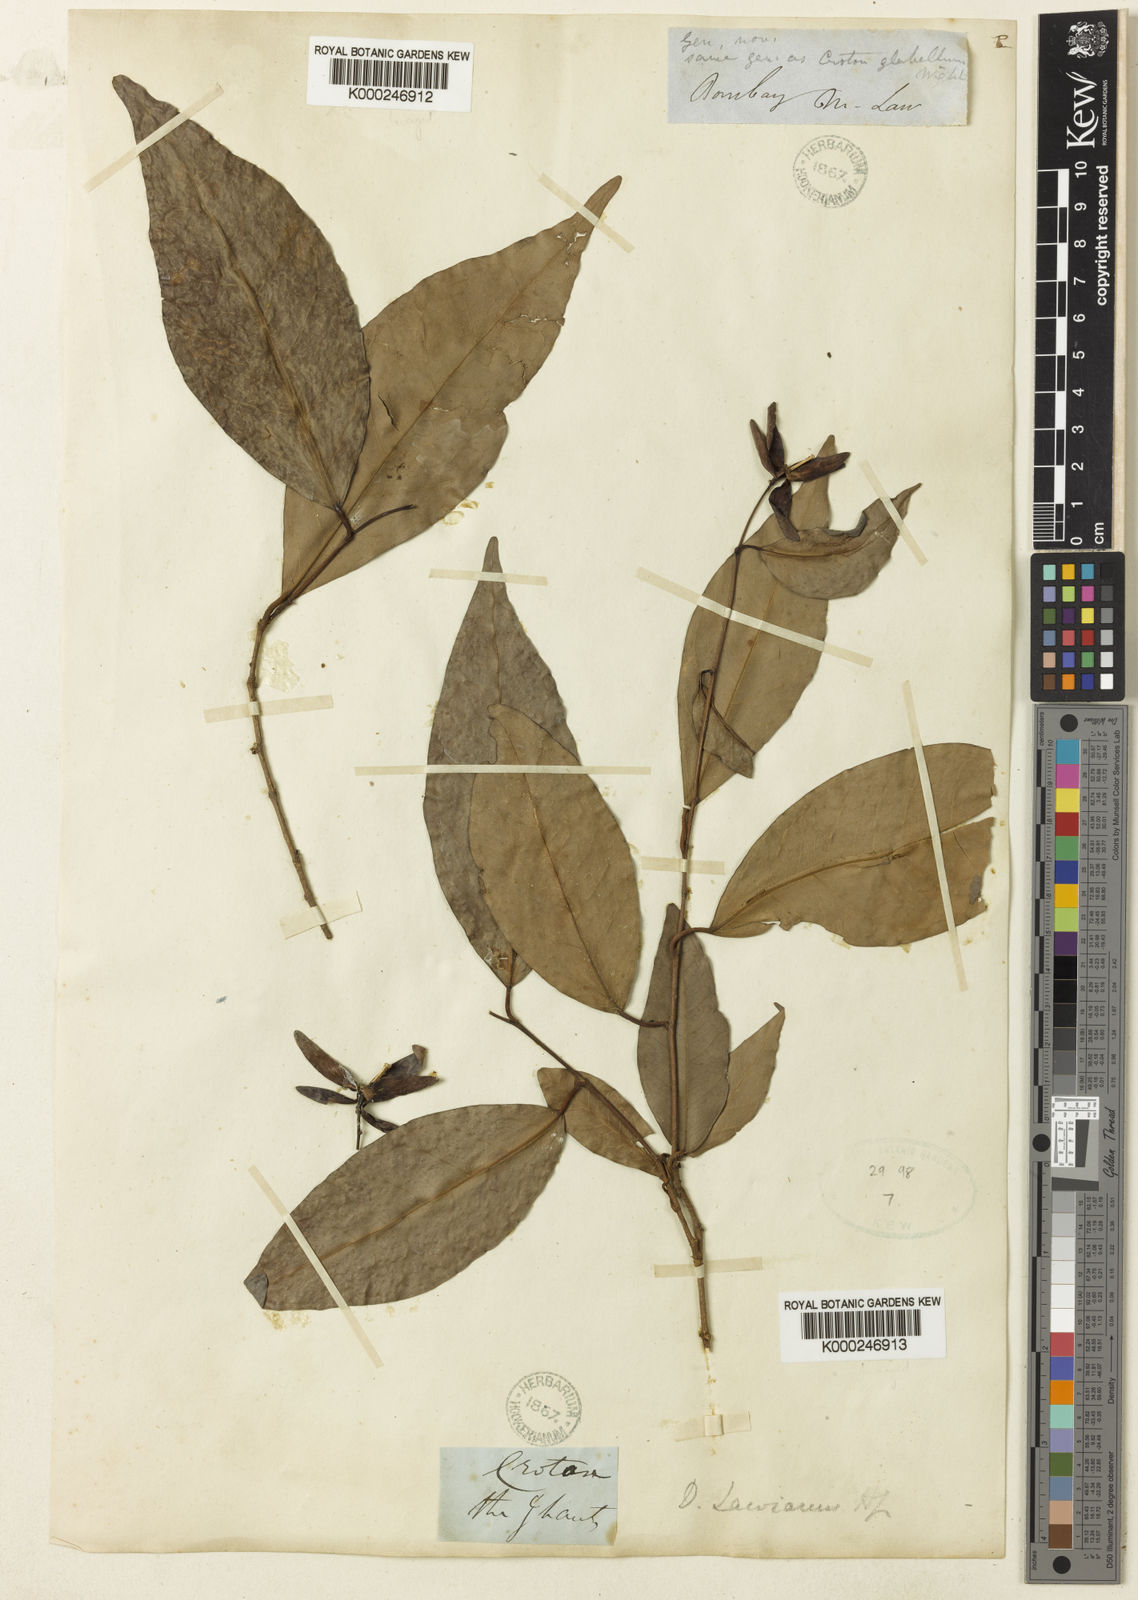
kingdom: Plantae
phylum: Tracheophyta
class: Magnoliopsida
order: Malpighiales
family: Euphorbiaceae
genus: Tritaxis
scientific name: Tritaxis glabella
